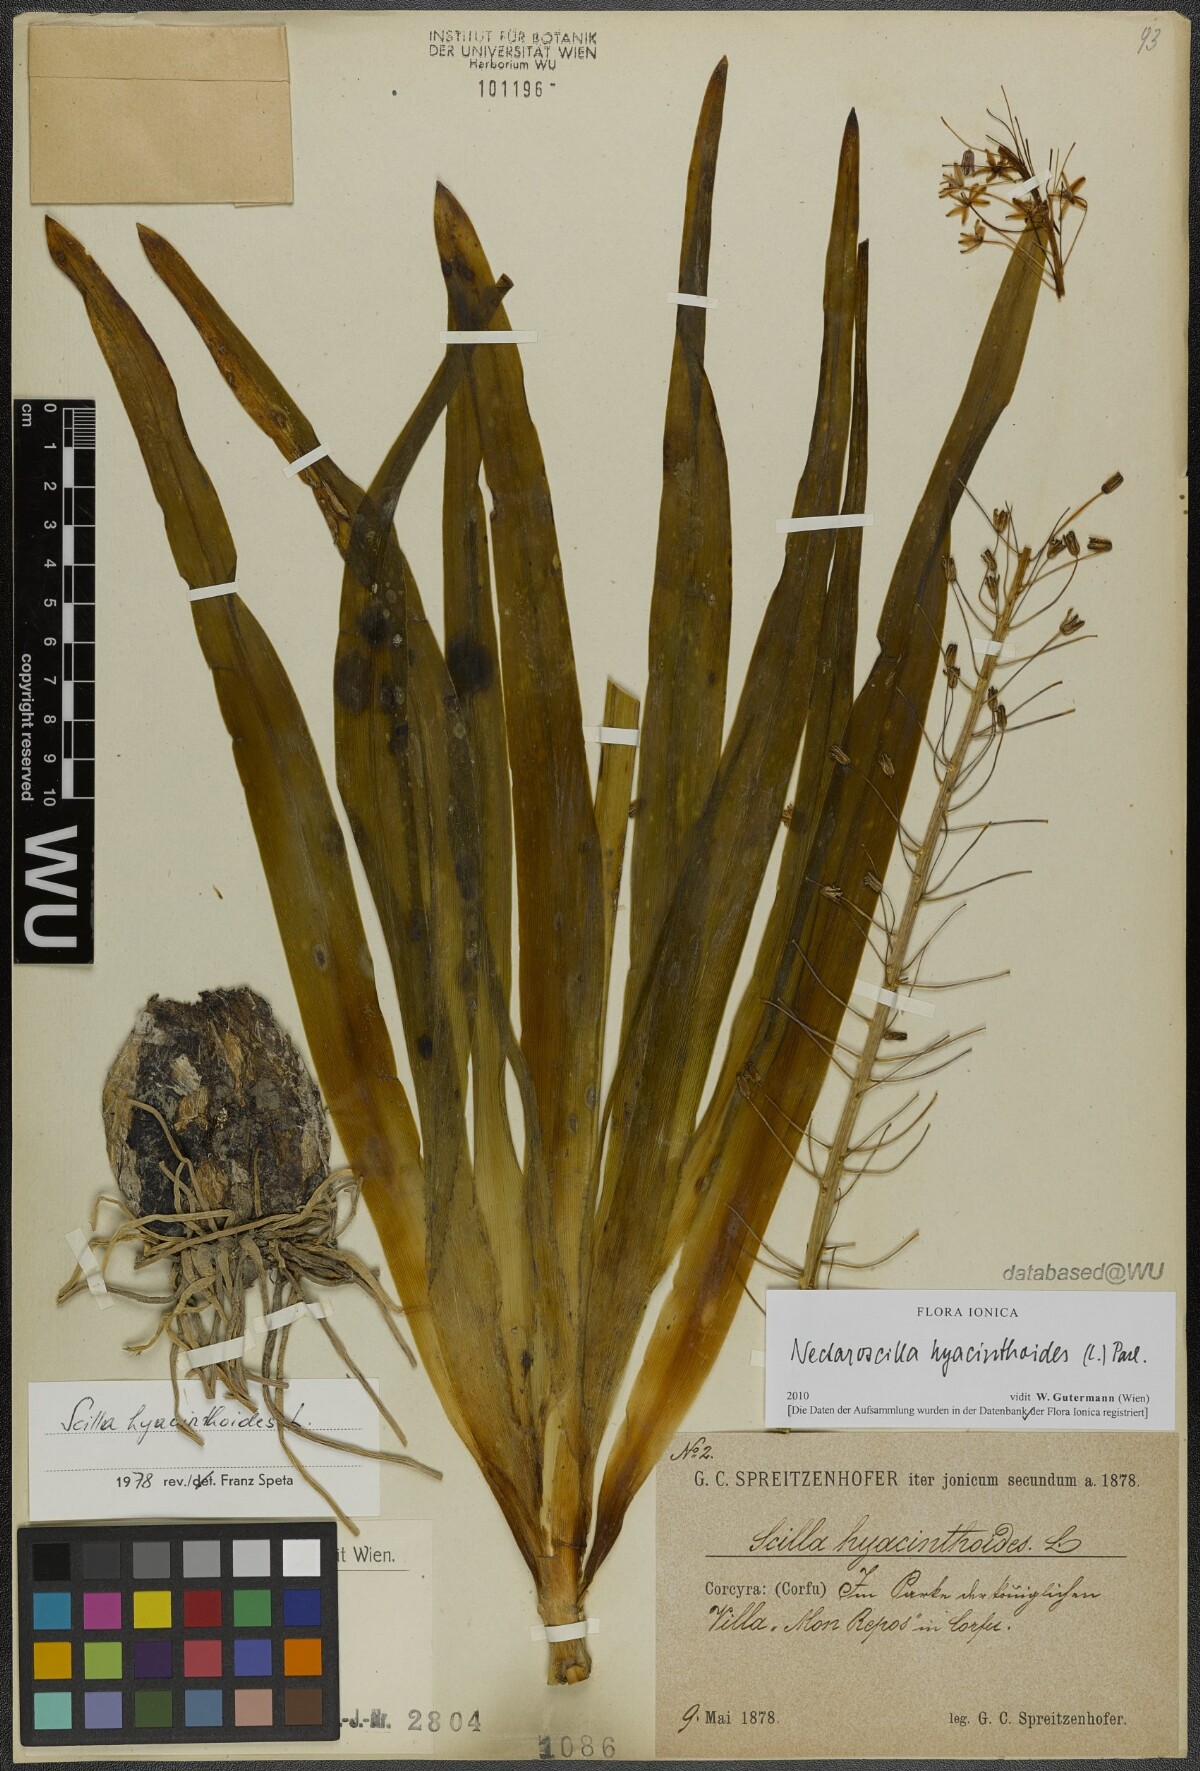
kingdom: Plantae
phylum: Tracheophyta
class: Liliopsida
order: Asparagales
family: Asparagaceae
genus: Scilla
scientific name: Scilla hyacinthoides
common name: Scilla
